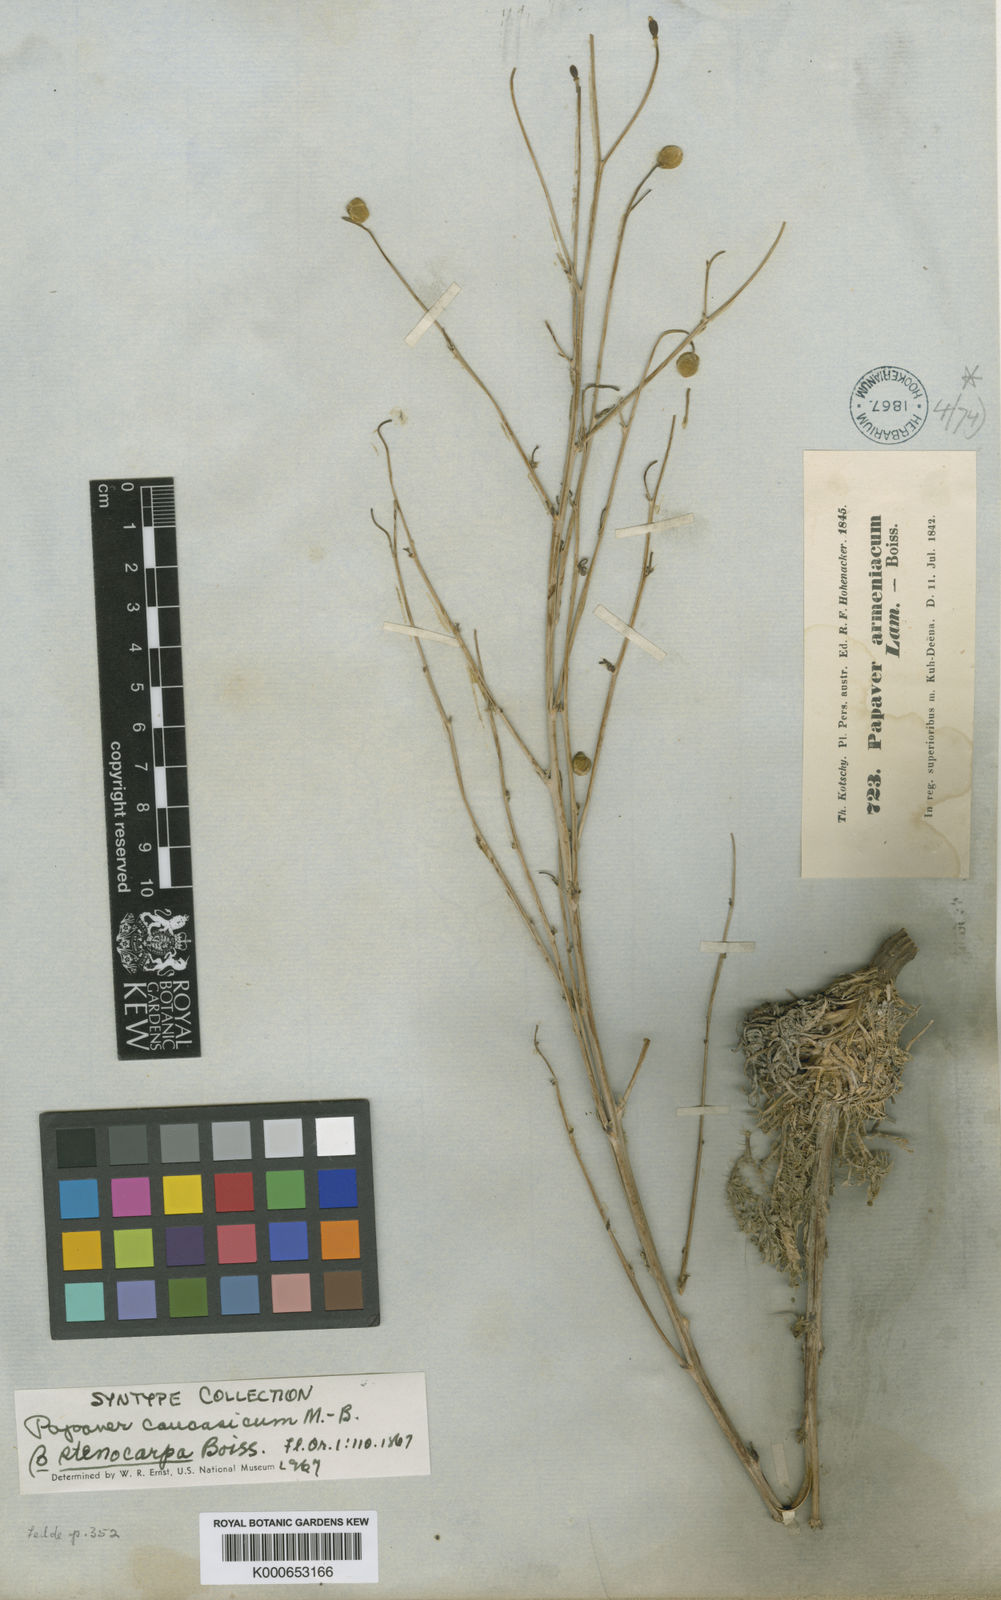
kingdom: Plantae
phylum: Tracheophyta
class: Magnoliopsida
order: Ranunculales
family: Papaveraceae
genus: Papaver
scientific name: Papaver armeniacum
